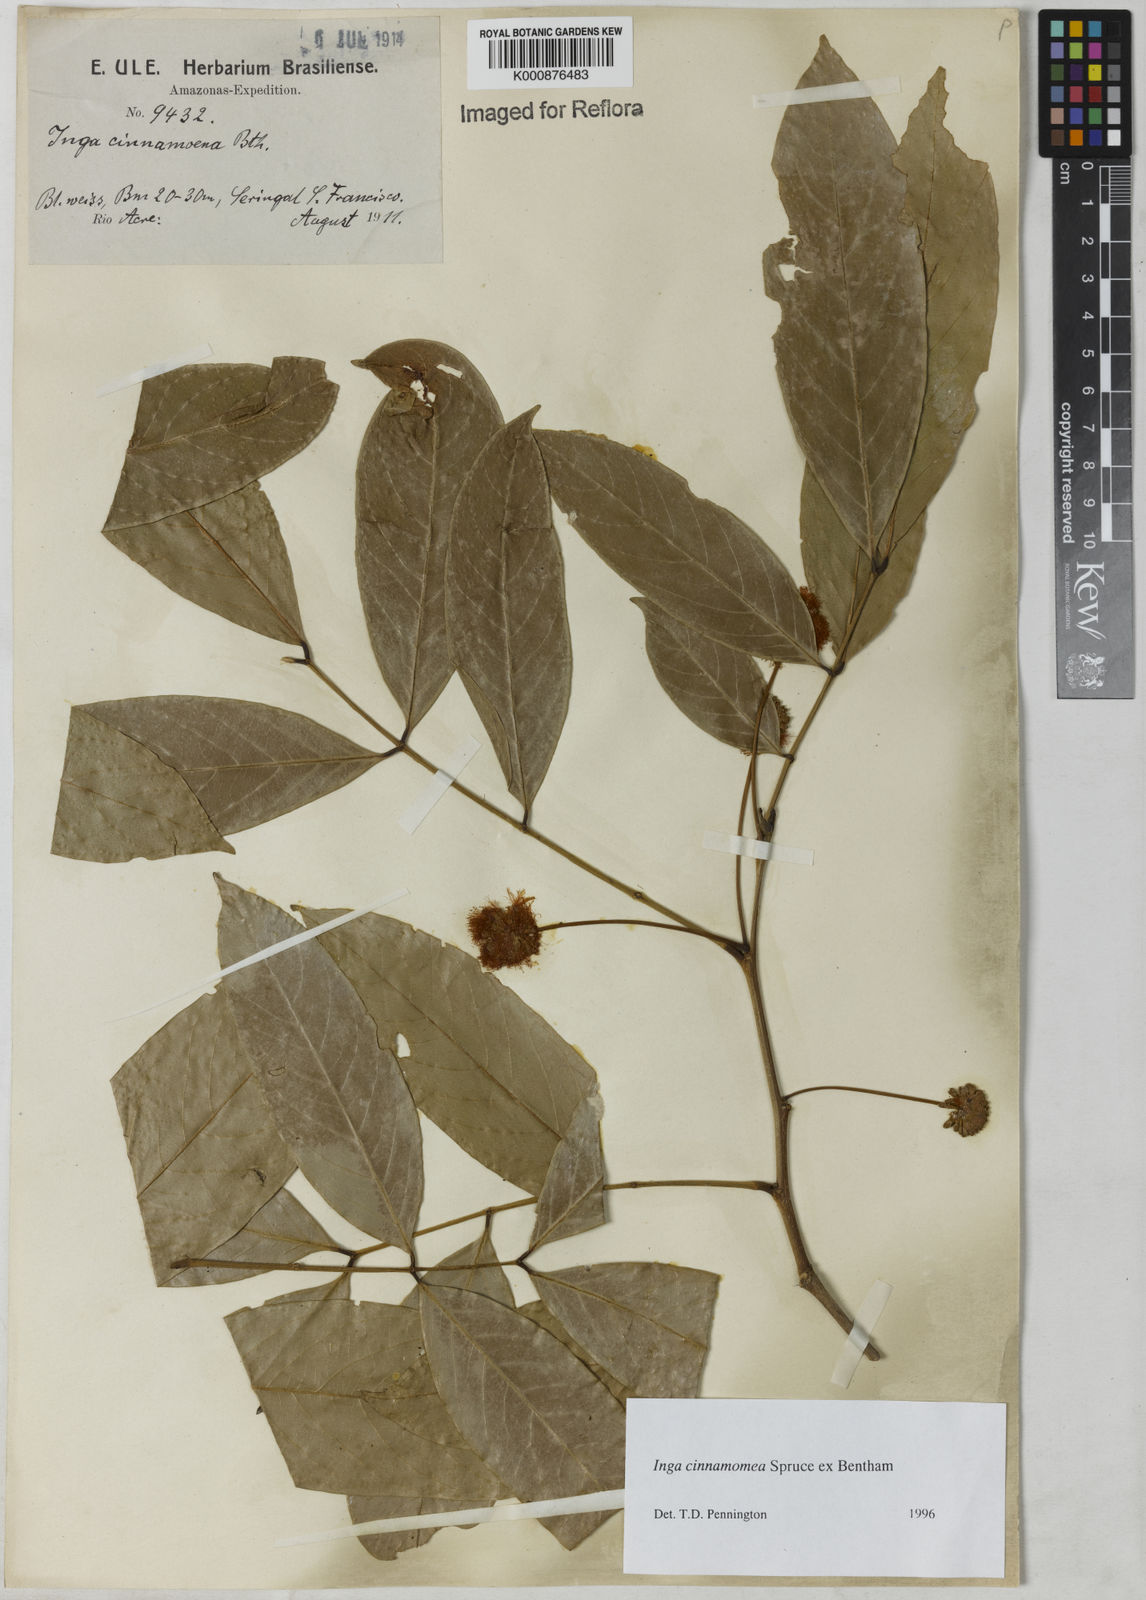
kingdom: Plantae
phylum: Tracheophyta
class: Magnoliopsida
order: Fabales
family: Fabaceae
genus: Inga
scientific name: Inga cinnamomea
